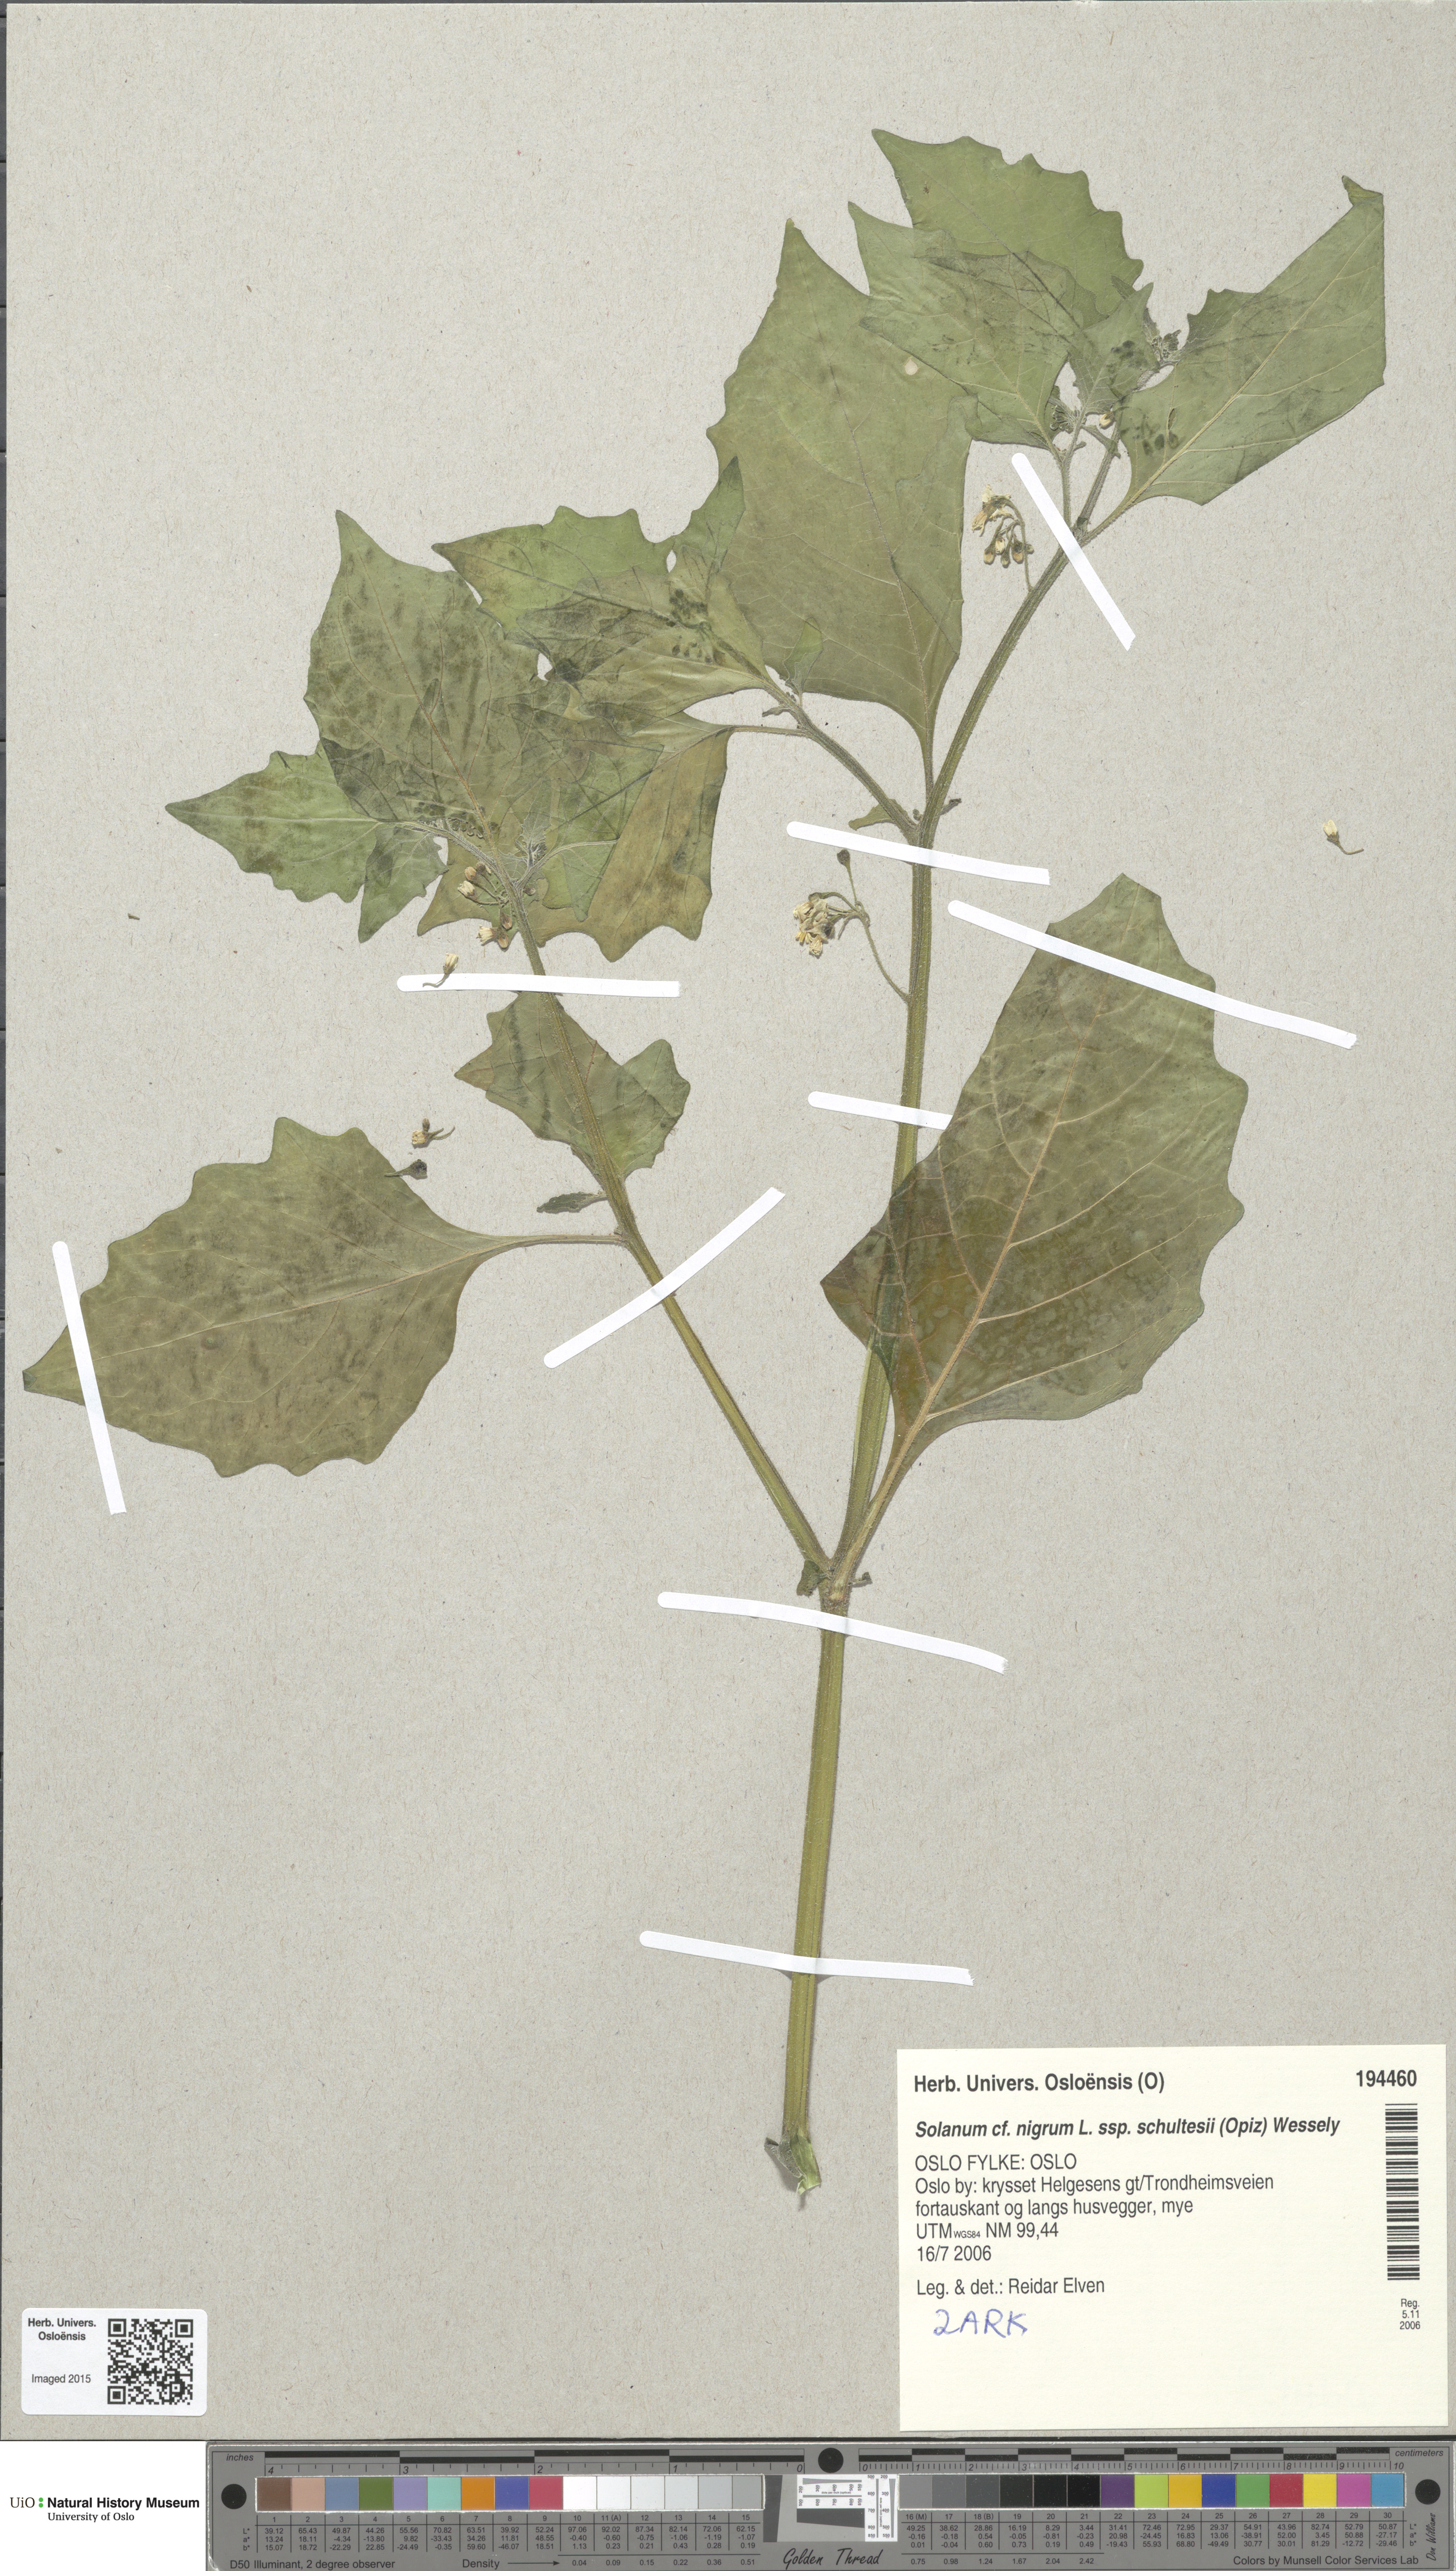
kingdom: Plantae
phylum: Tracheophyta
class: Magnoliopsida
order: Solanales
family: Solanaceae
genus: Solanum
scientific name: Solanum decipiens
